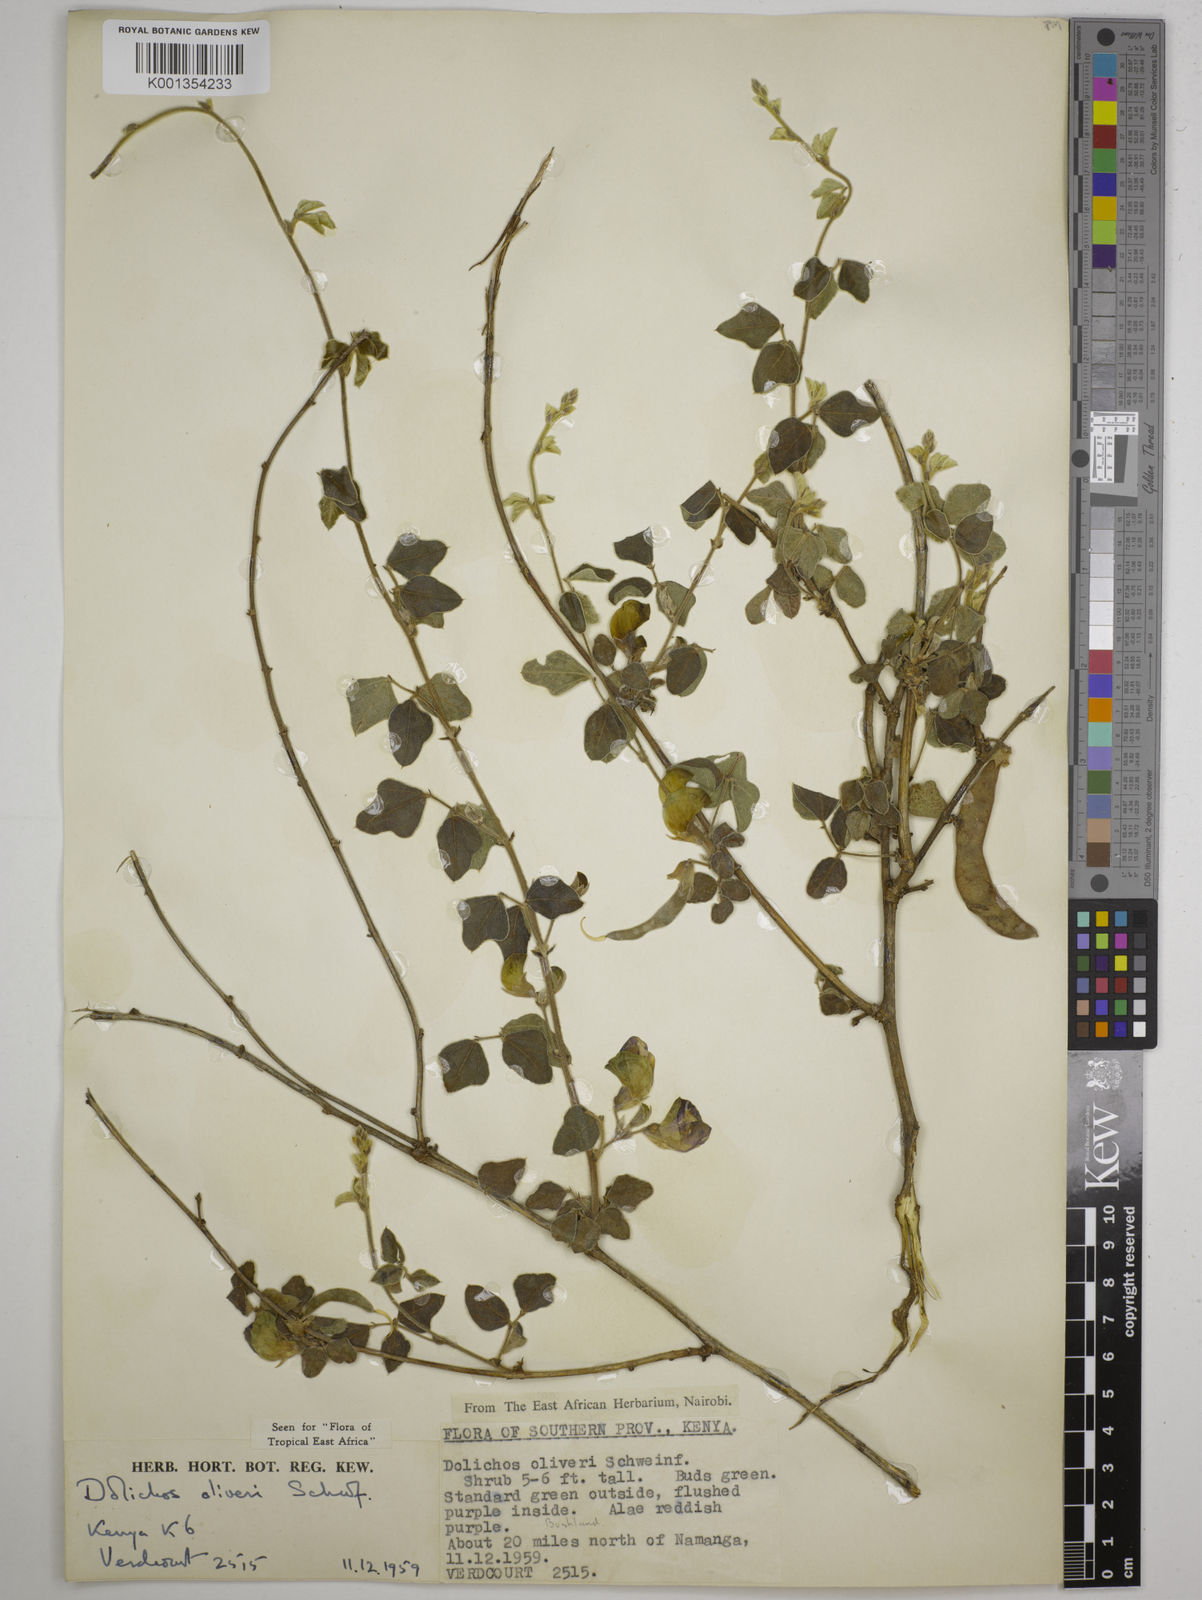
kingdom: Plantae
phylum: Tracheophyta
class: Magnoliopsida
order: Fabales
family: Fabaceae
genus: Dolichos
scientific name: Dolichos oliveri
